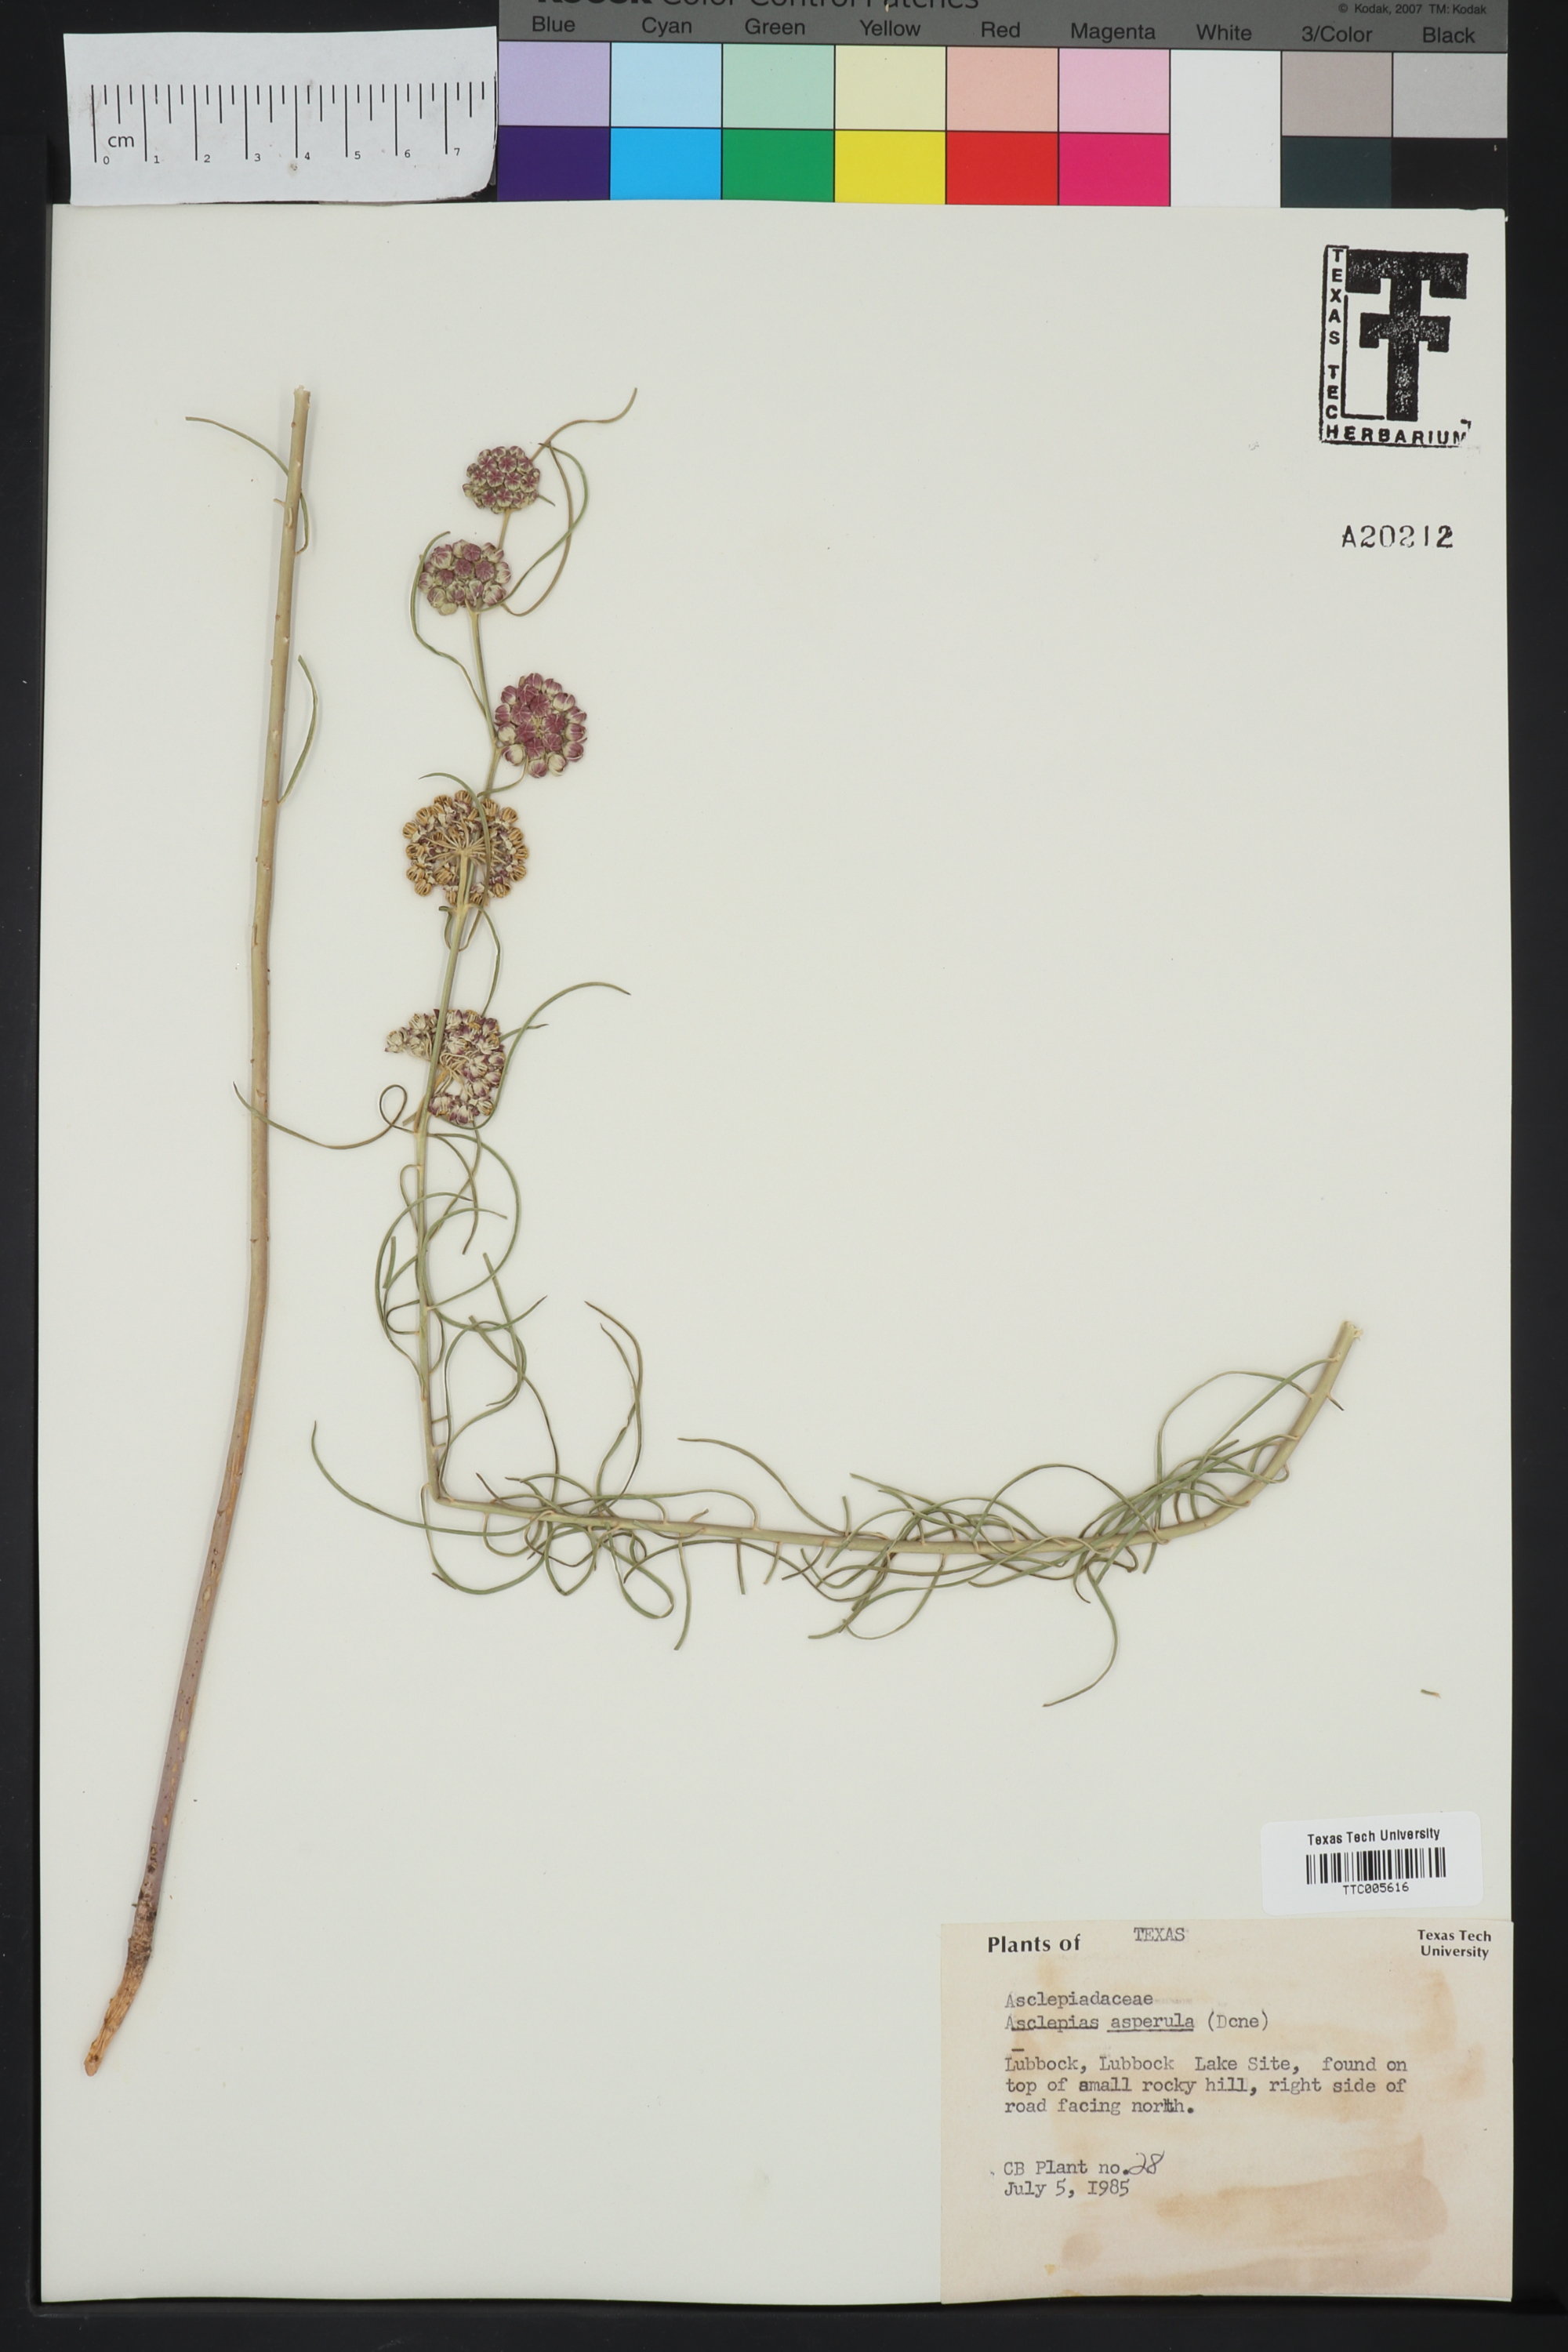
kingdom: Plantae
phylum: Tracheophyta
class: Magnoliopsida
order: Gentianales
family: Apocynaceae
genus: Asclepias
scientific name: Asclepias asperula
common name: Antelope horns
